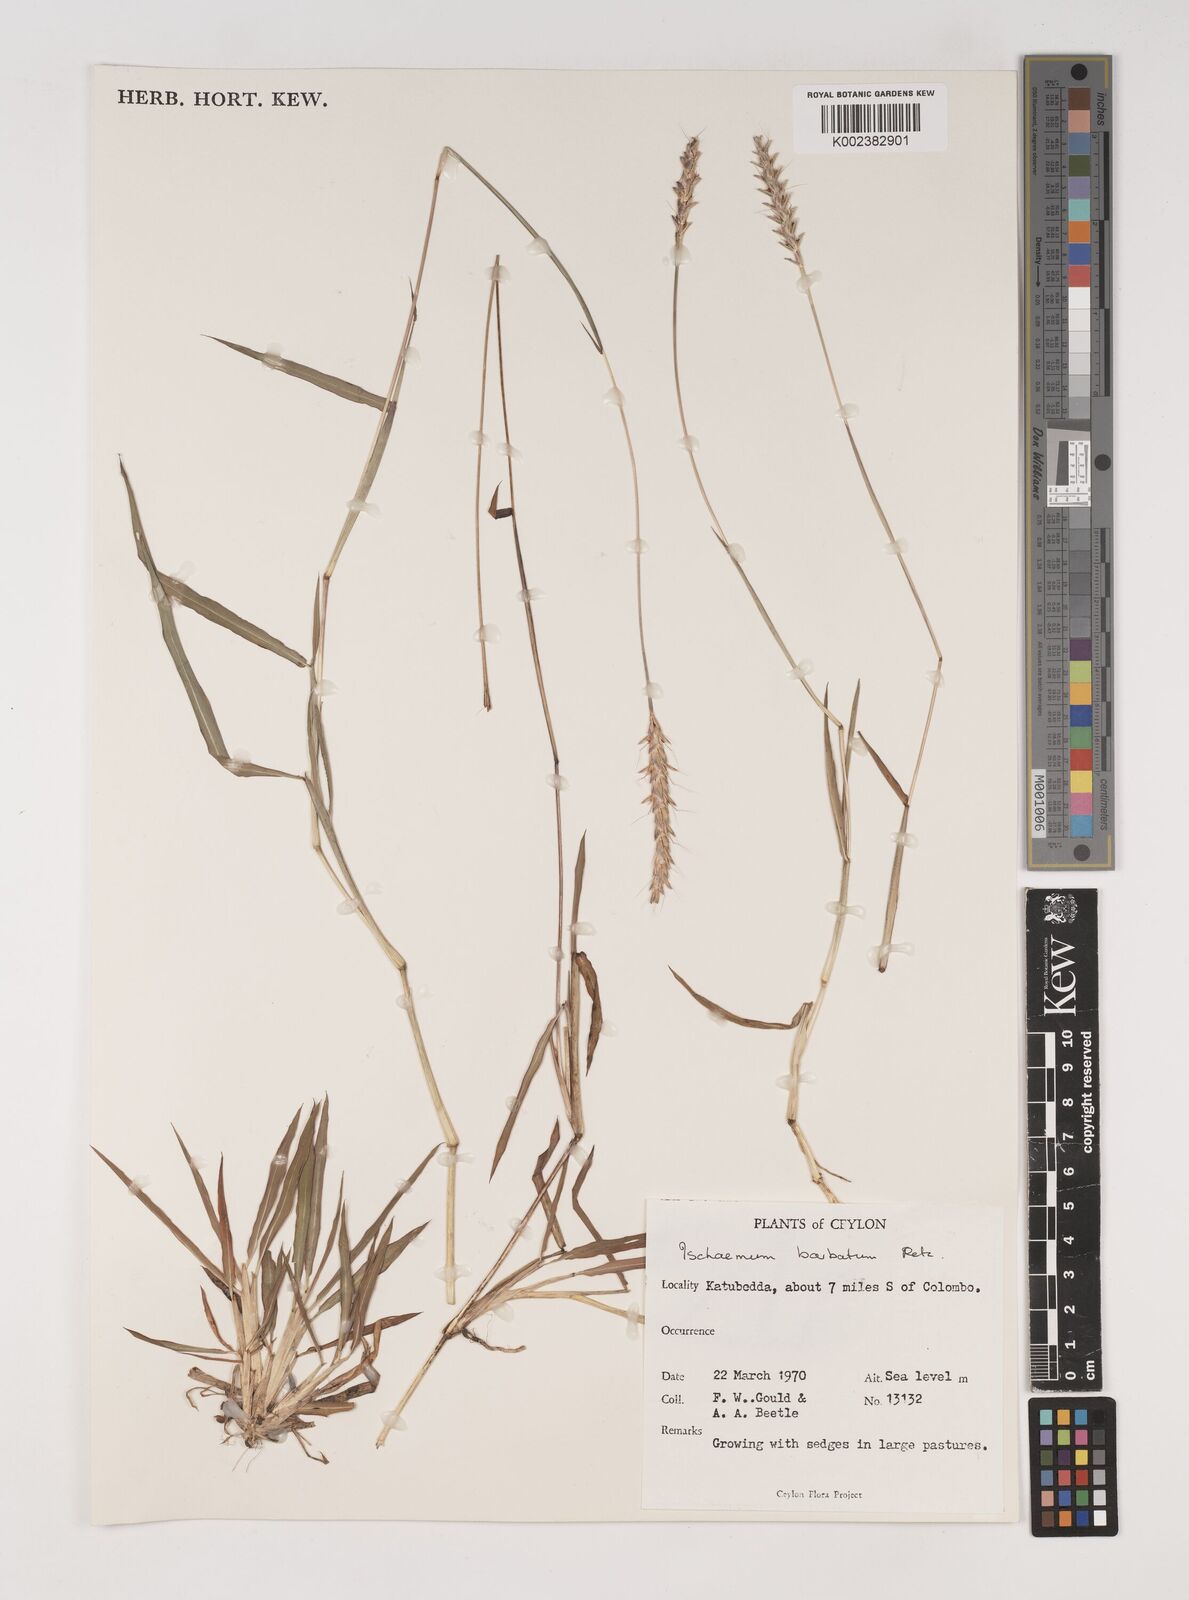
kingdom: Plantae
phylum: Tracheophyta
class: Liliopsida
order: Poales
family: Poaceae
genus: Ischaemum
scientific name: Ischaemum
